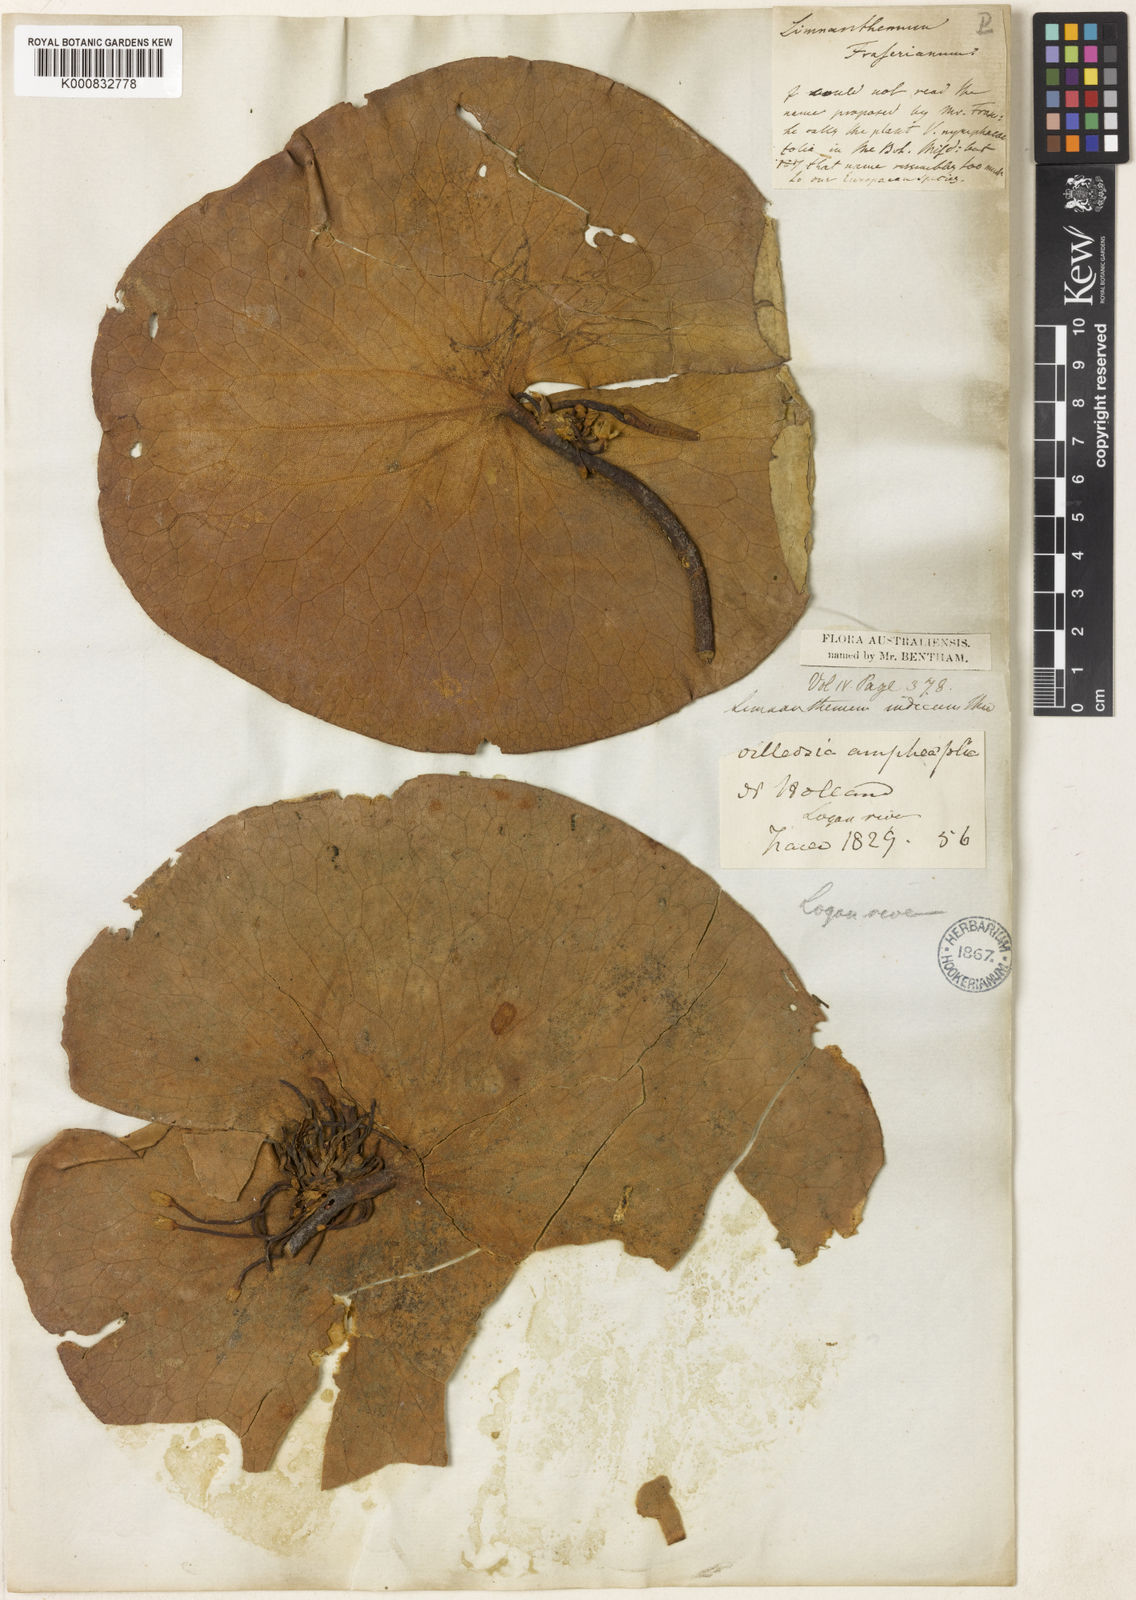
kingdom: Plantae
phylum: Tracheophyta
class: Magnoliopsida
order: Asterales
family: Menyanthaceae
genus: Nymphoides
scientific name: Nymphoides indica
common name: Water-snowflake
